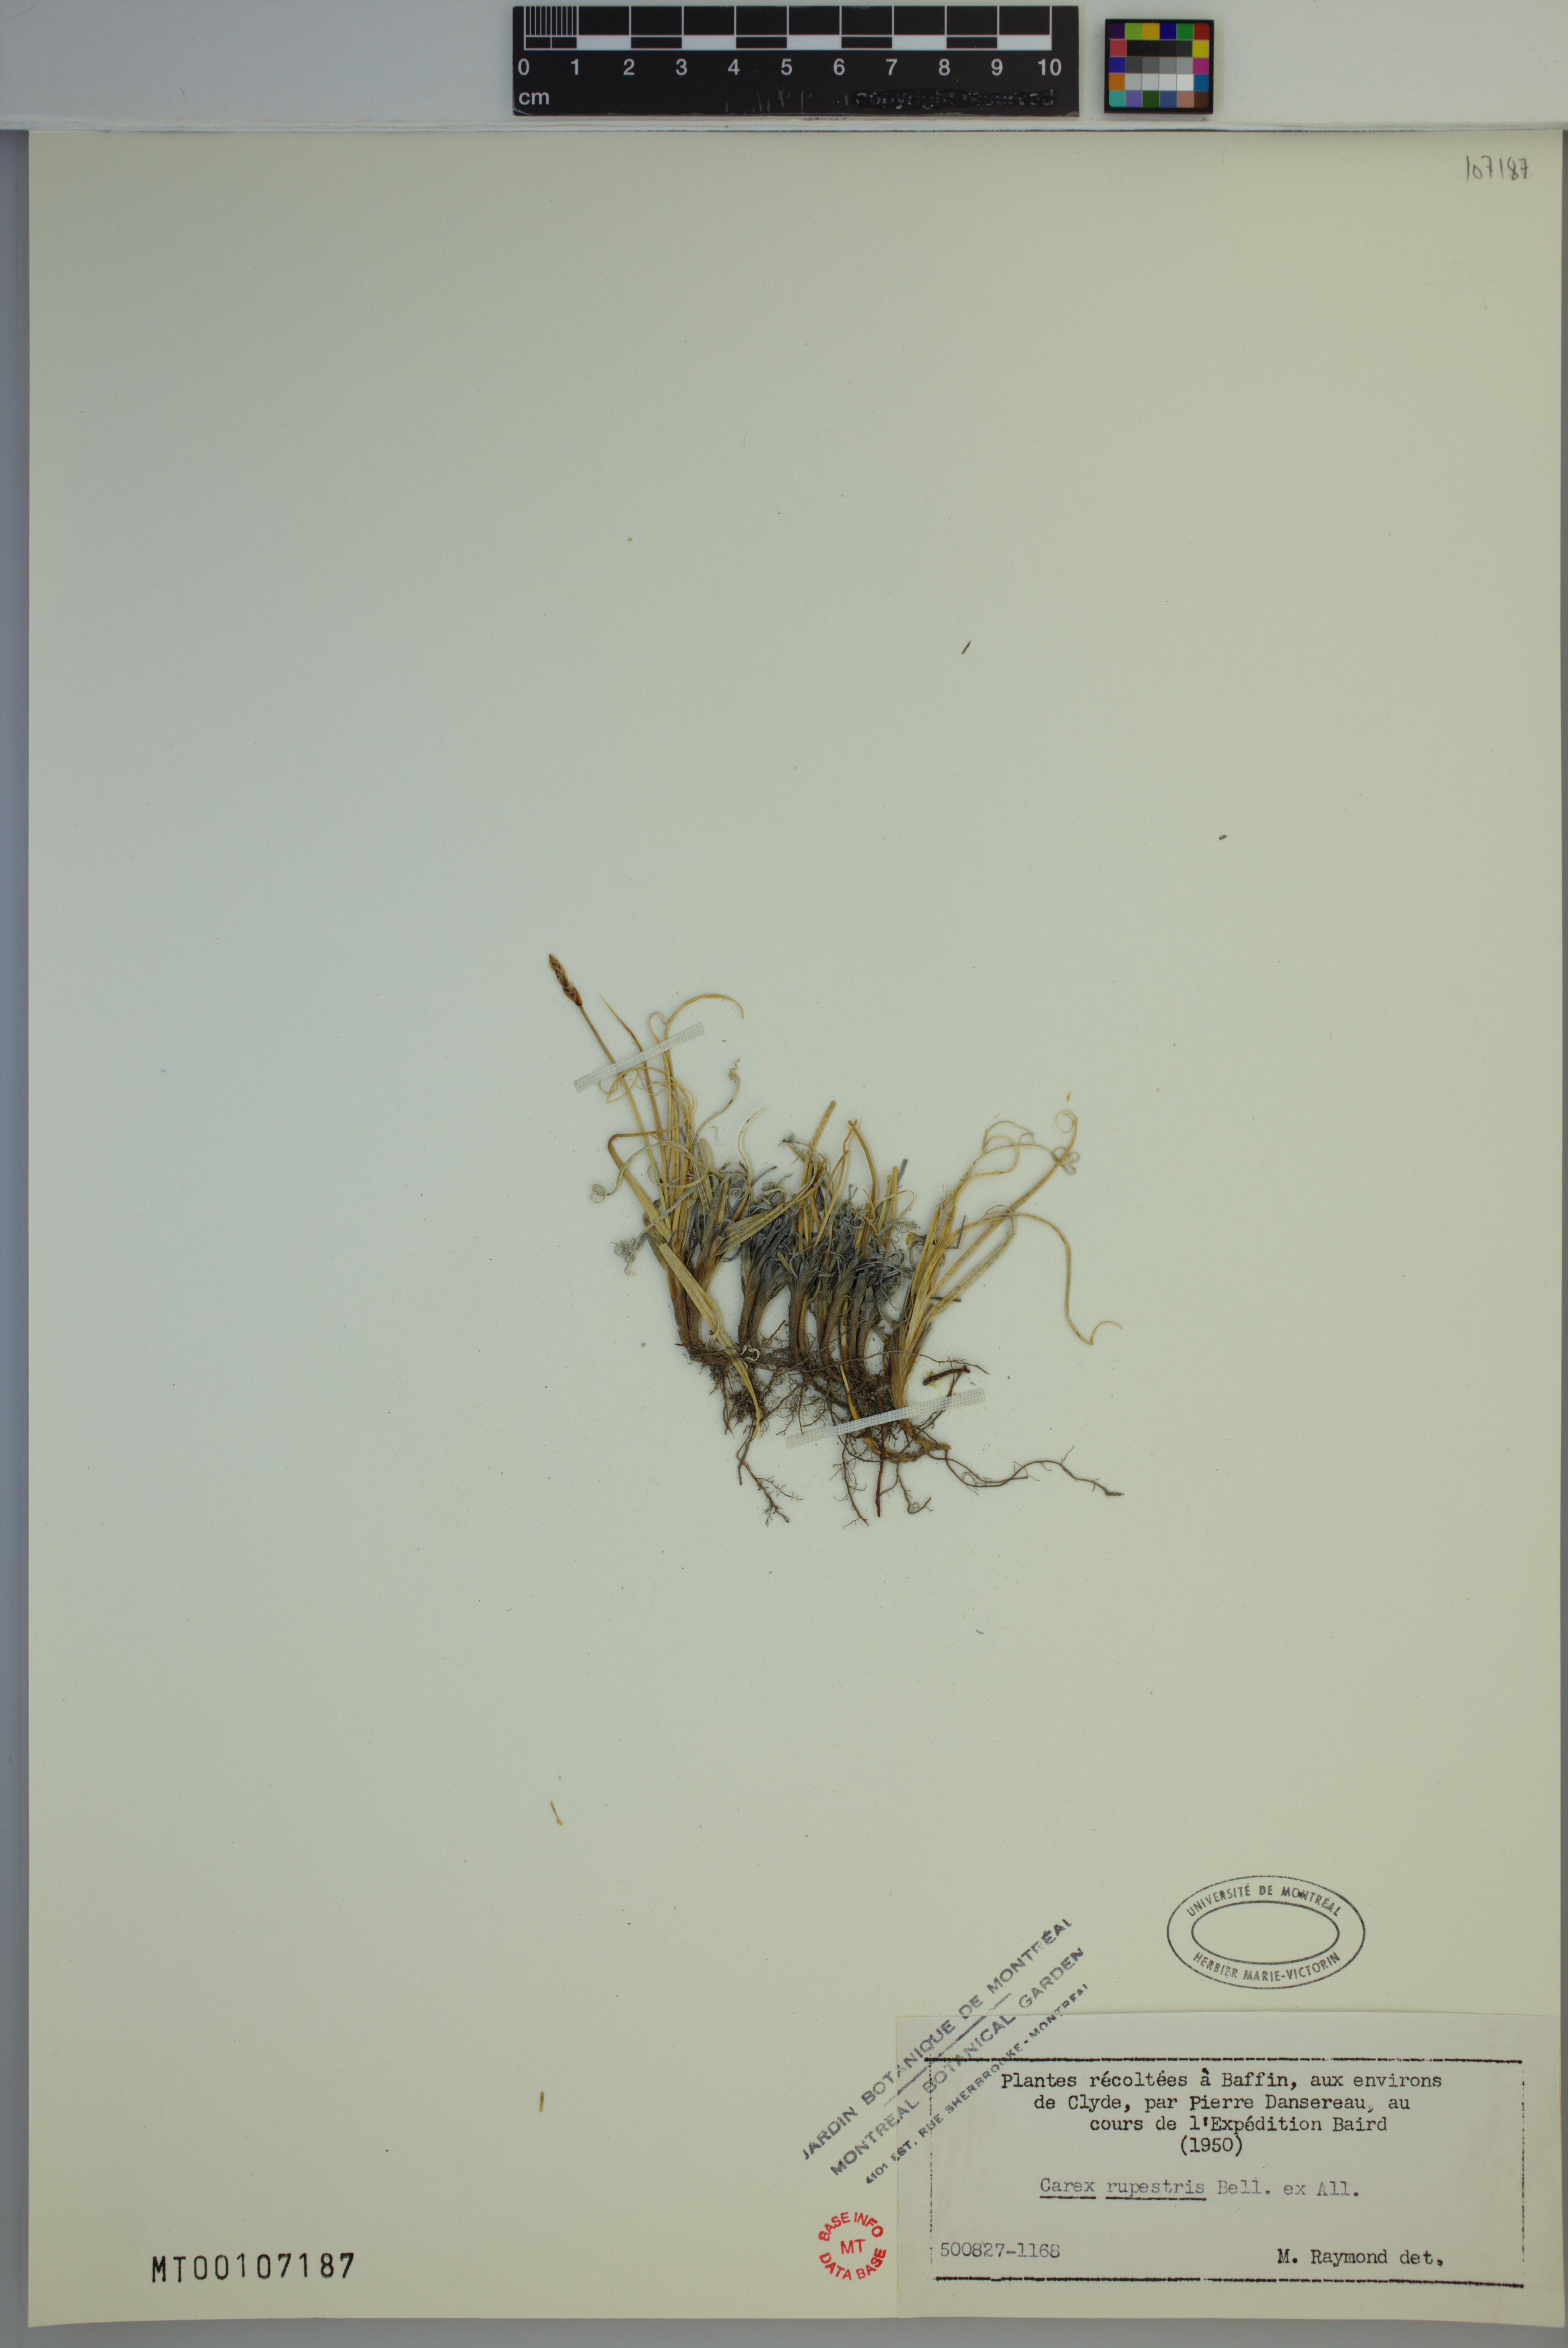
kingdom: Plantae
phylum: Tracheophyta
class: Liliopsida
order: Poales
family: Cyperaceae
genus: Carex
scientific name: Carex rupestris
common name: Rock sedge
